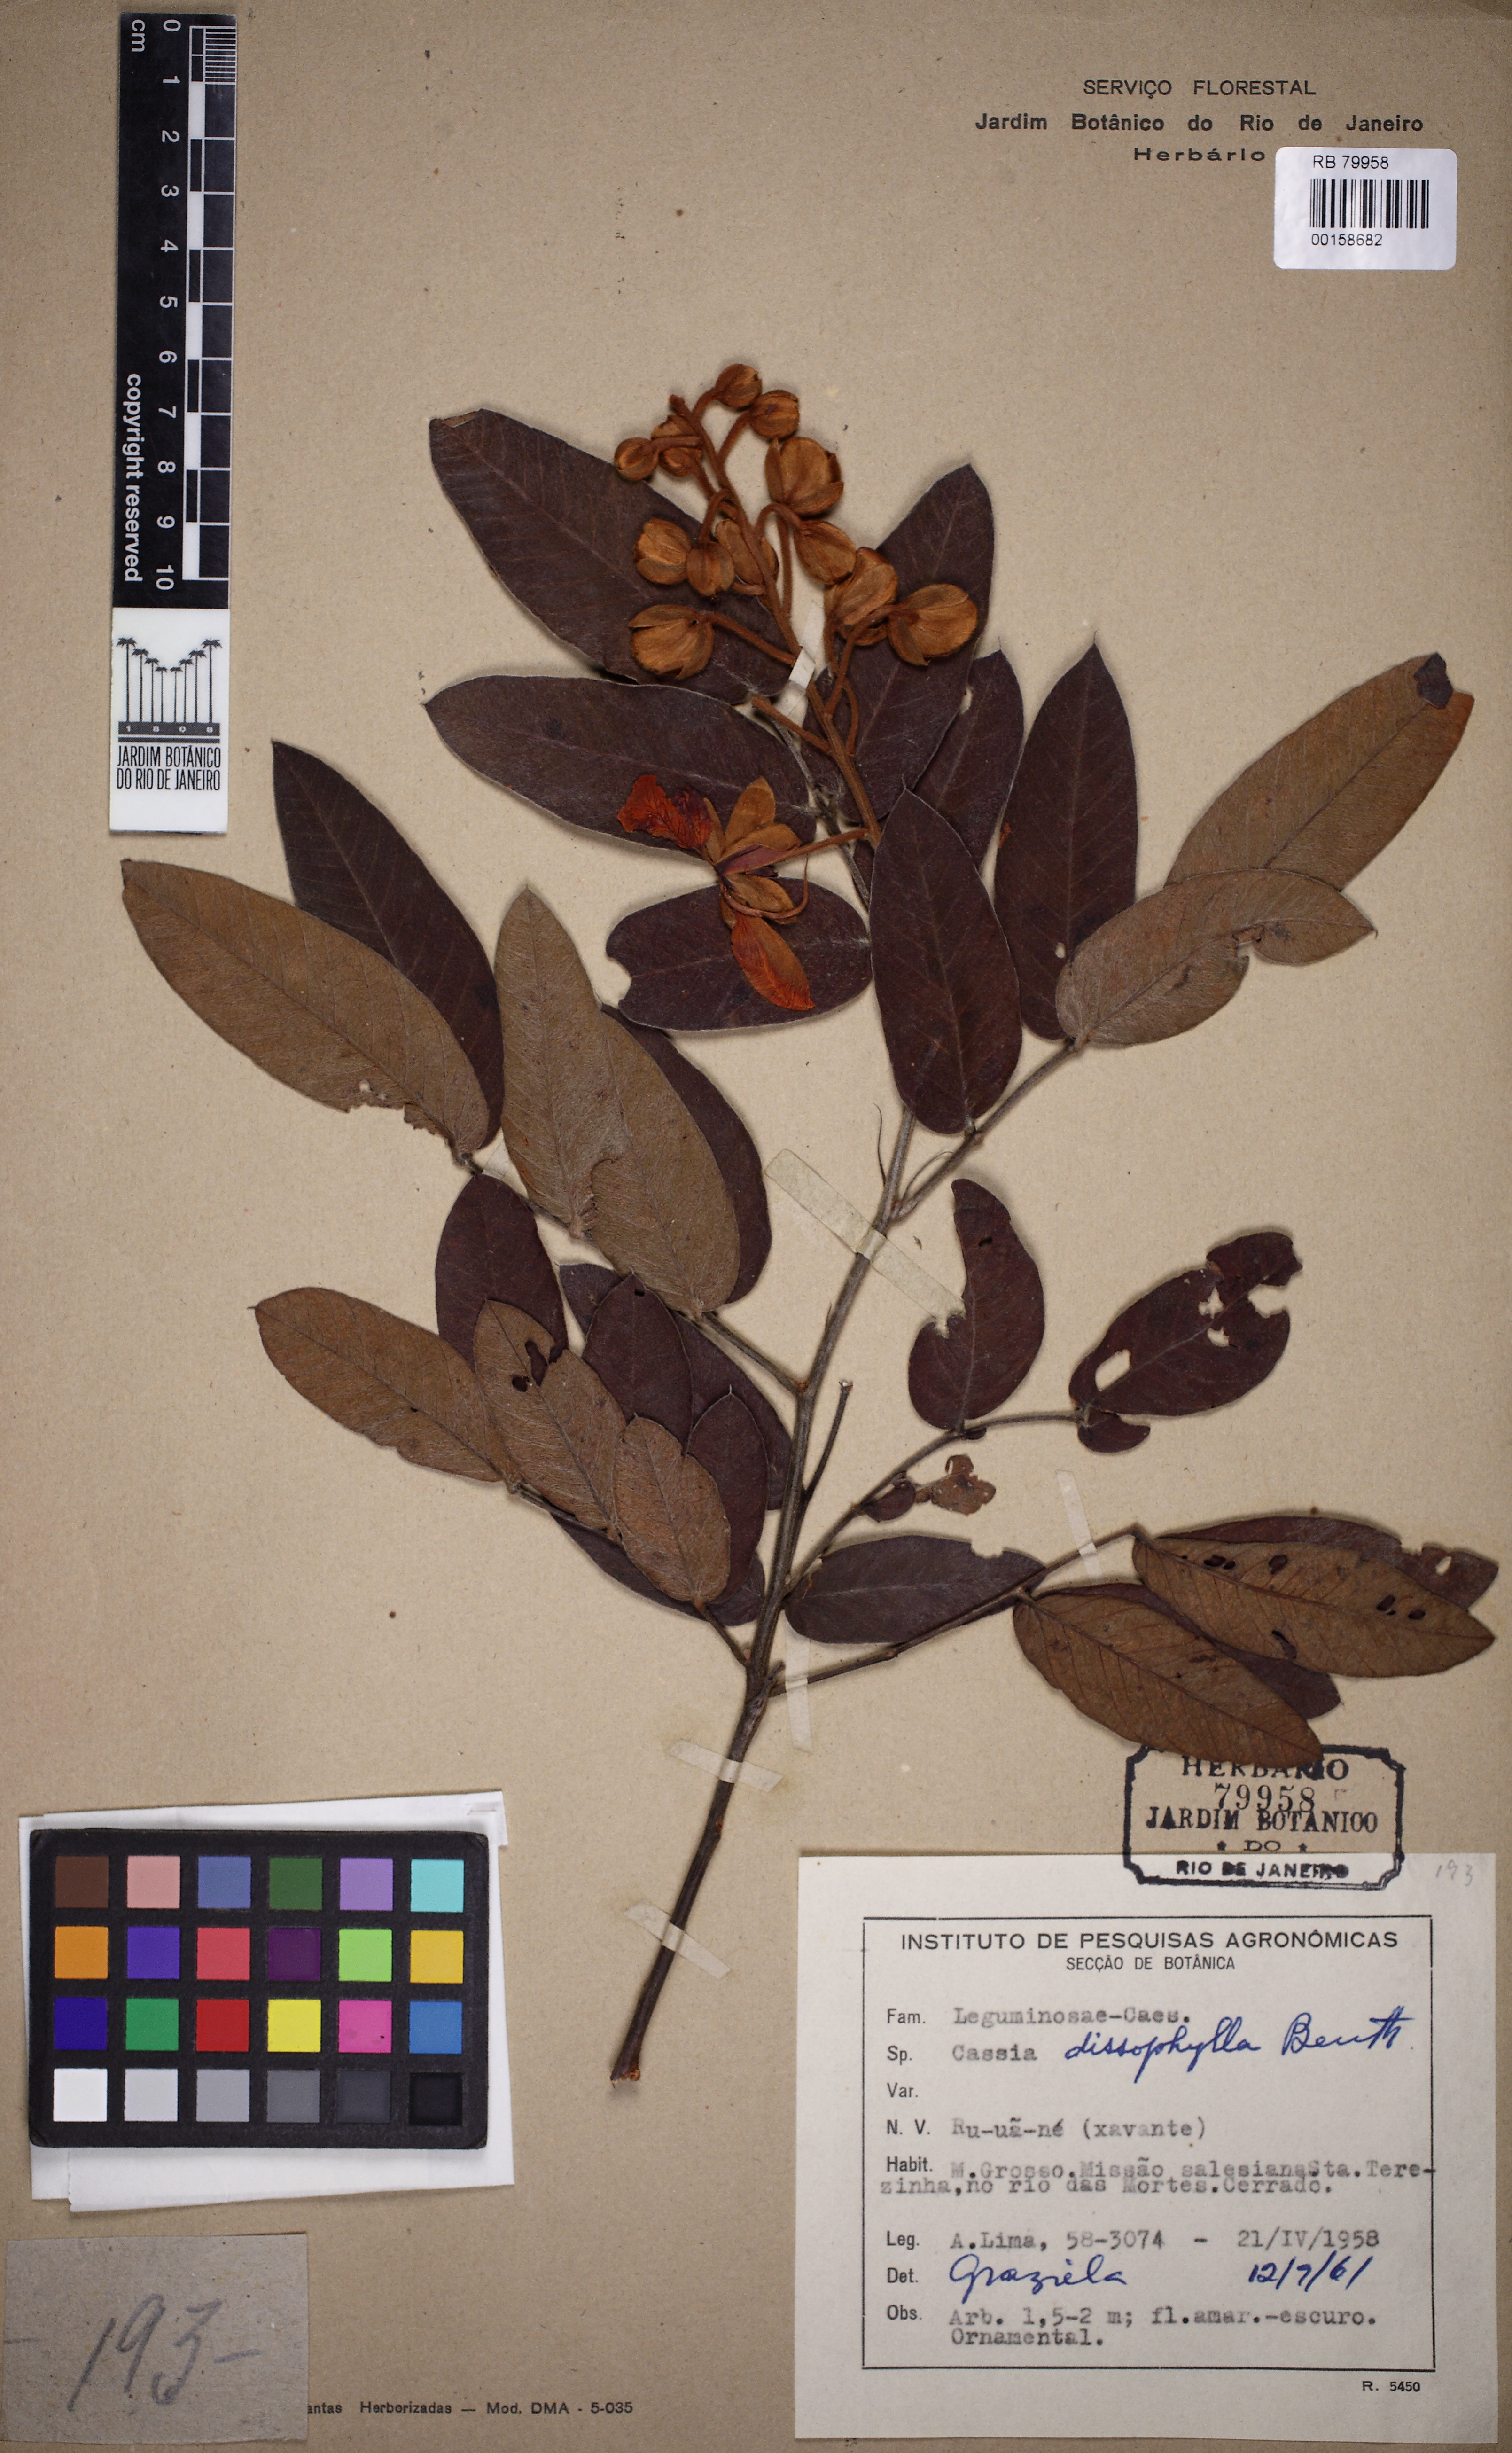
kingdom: Plantae
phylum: Tracheophyta
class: Magnoliopsida
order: Fabales
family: Fabaceae
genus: Senna
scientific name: Senna velutina
